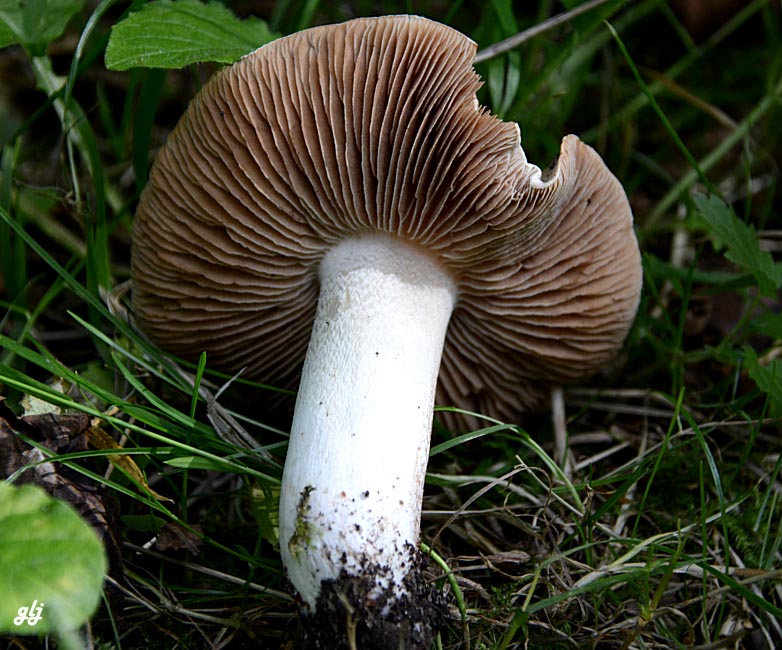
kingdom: Fungi
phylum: Basidiomycota
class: Agaricomycetes
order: Agaricales
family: Hymenogastraceae
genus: Hebeloma
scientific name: Hebeloma
